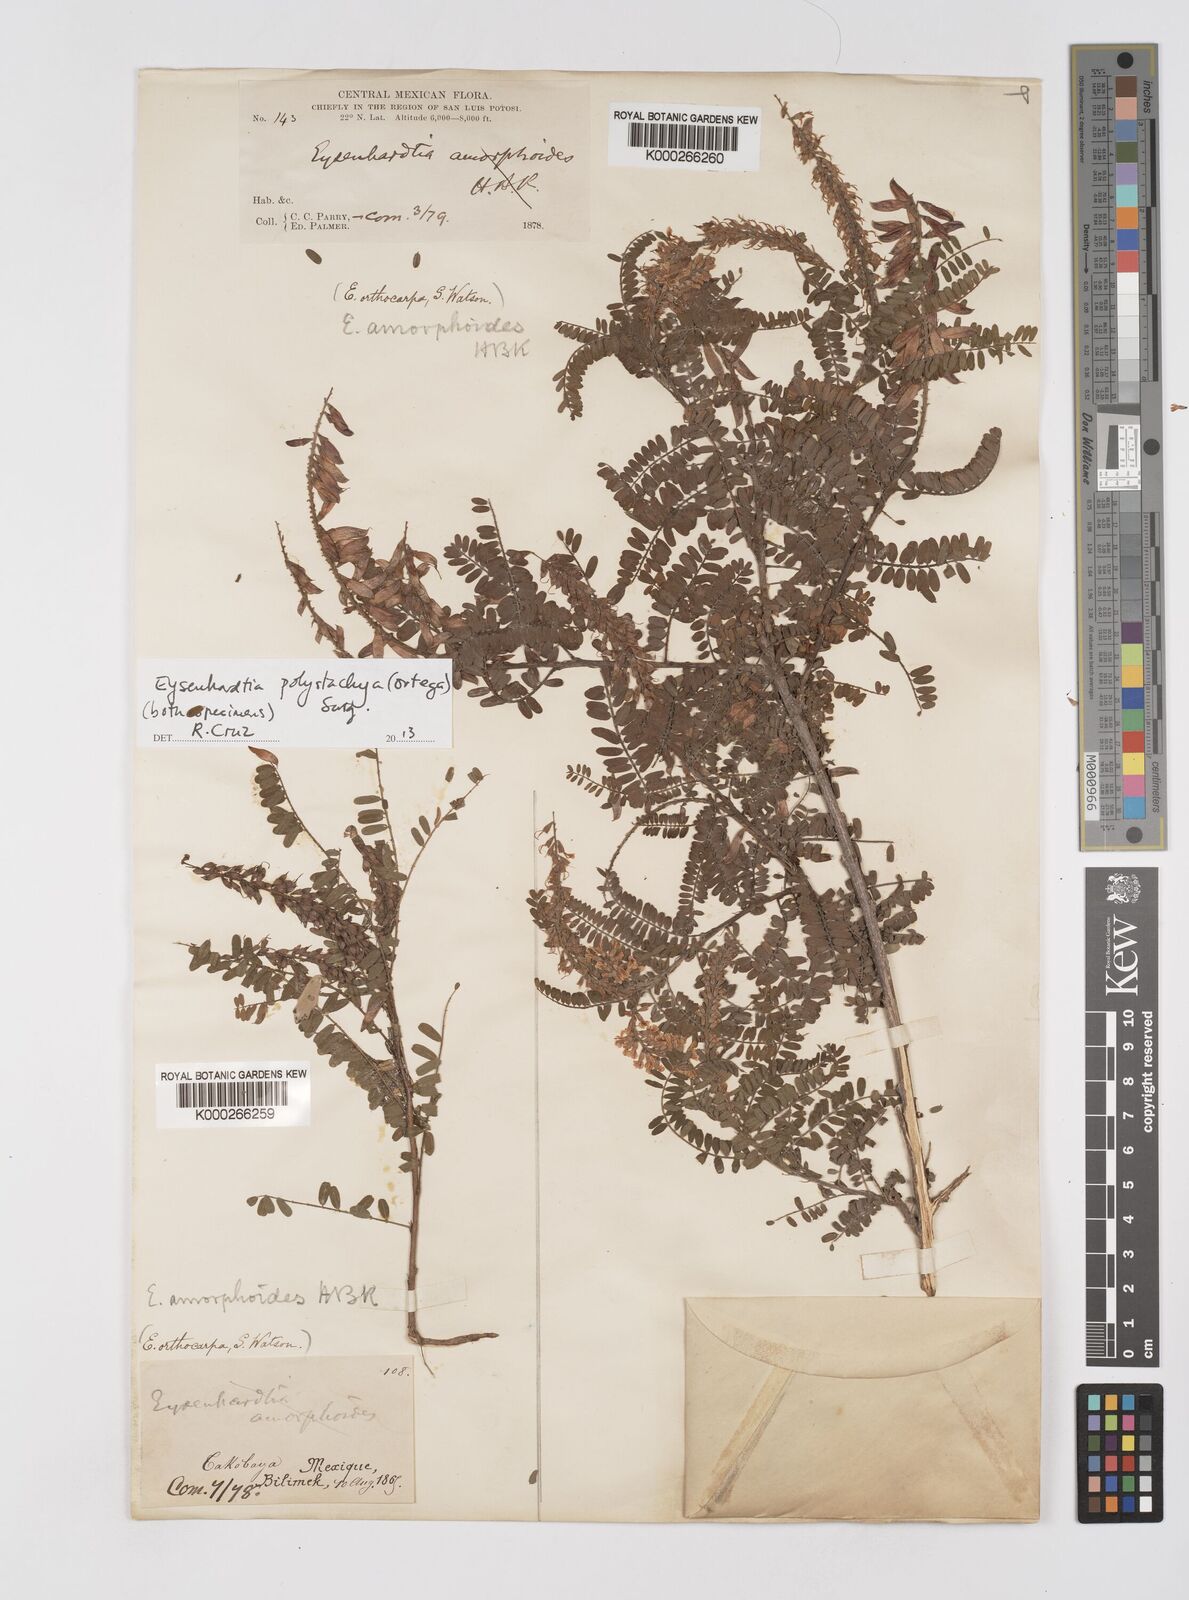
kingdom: Plantae
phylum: Tracheophyta
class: Magnoliopsida
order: Fabales
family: Fabaceae
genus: Eysenhardtia
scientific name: Eysenhardtia polystachya
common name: Kidneywood
